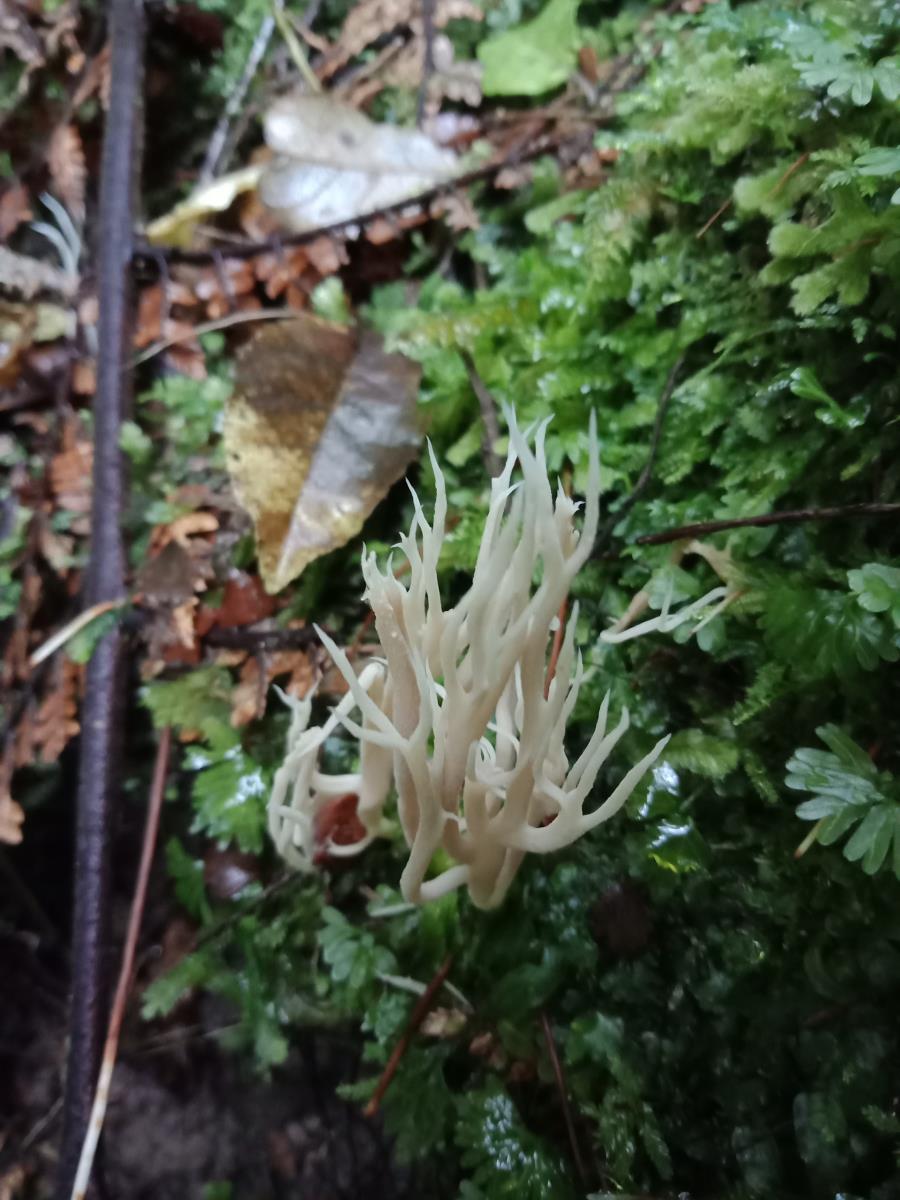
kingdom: Fungi
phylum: Basidiomycota
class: Agaricomycetes
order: Cantharellales
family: Hydnaceae
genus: Clavulina
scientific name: Clavulina coralloides
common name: Crested coral
